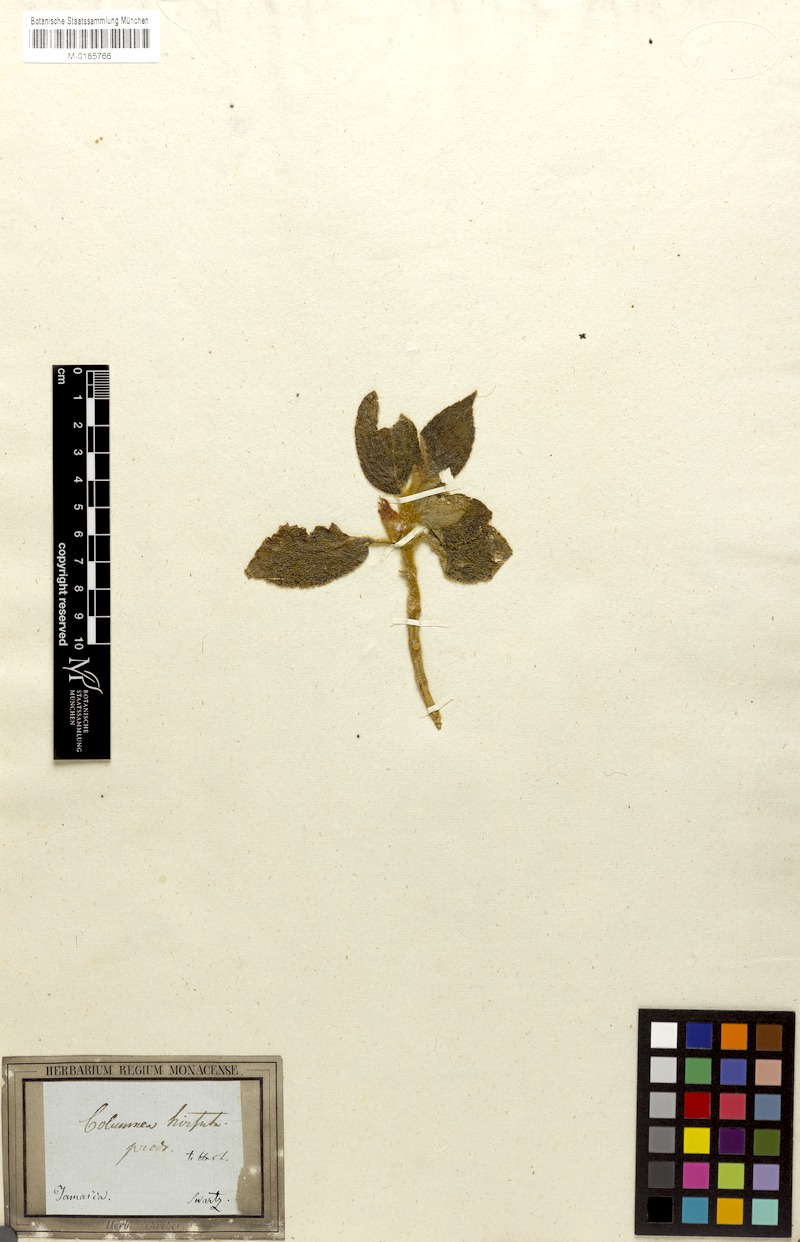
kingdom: Plantae
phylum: Tracheophyta
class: Magnoliopsida
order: Lamiales
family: Gesneriaceae
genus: Columnea
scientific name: Columnea hirsuta
